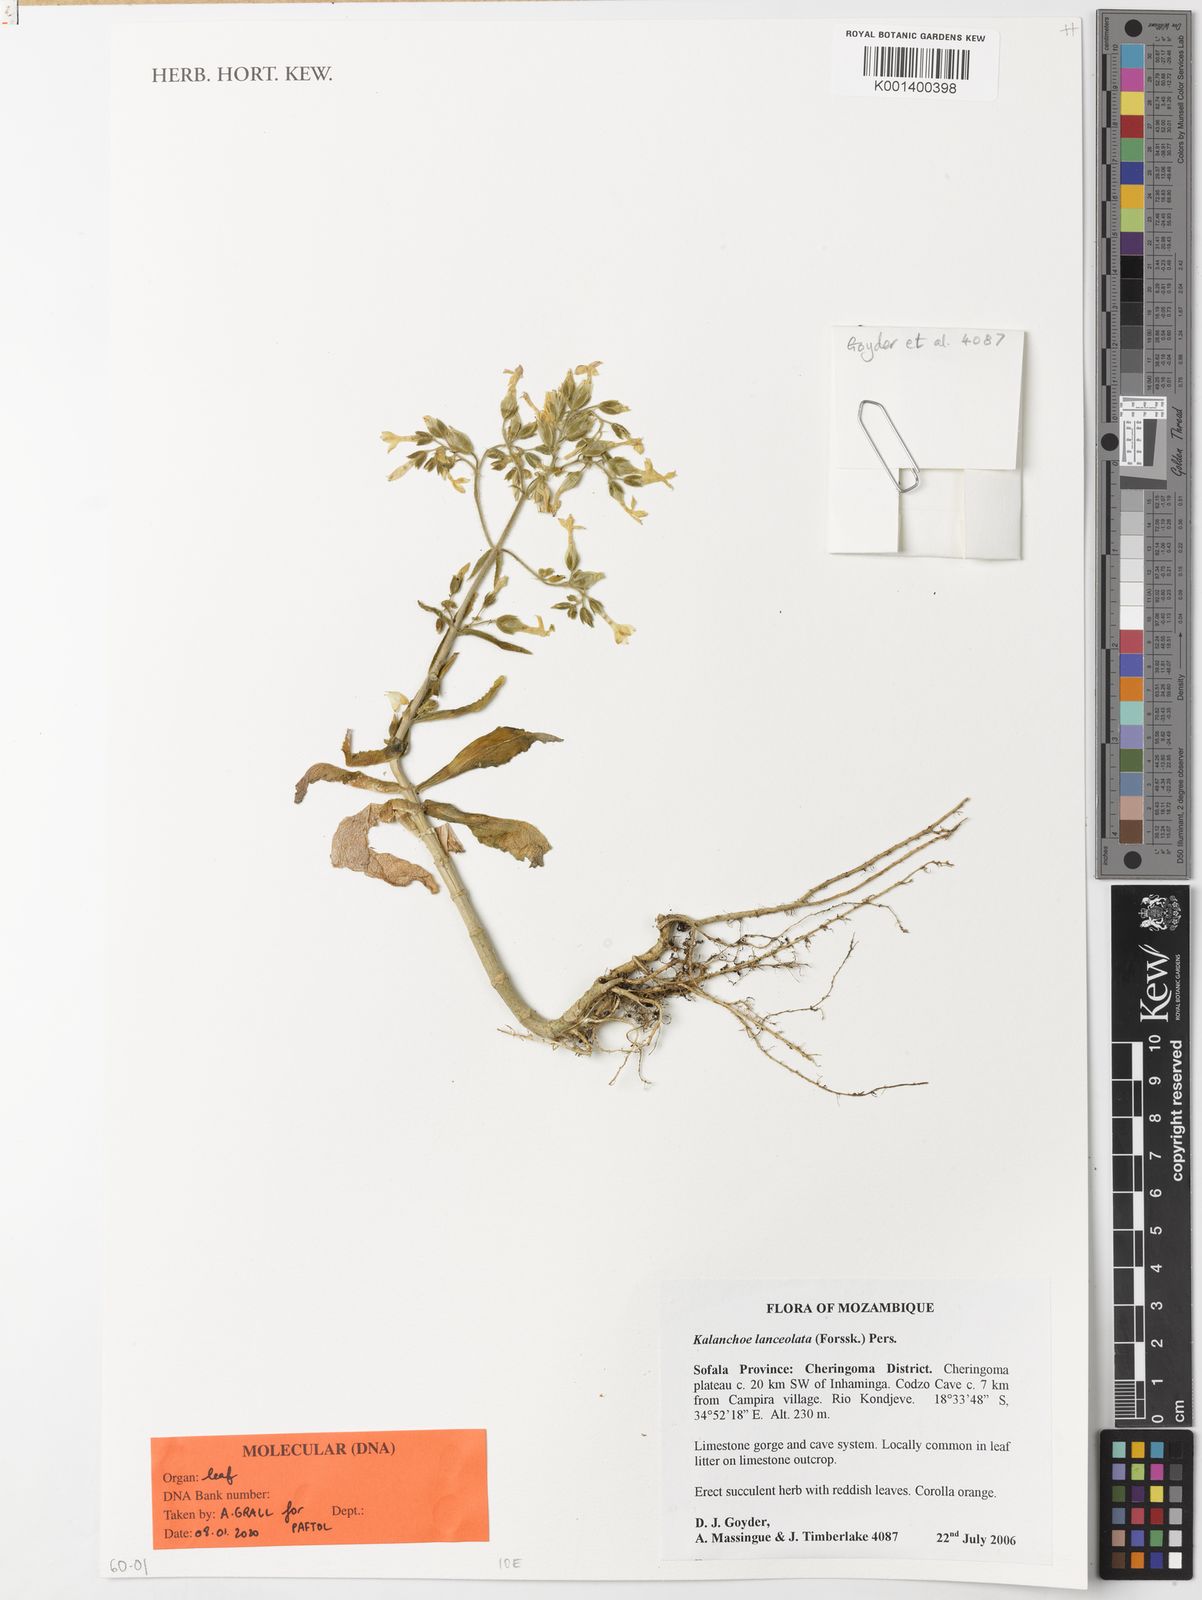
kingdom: Plantae
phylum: Tracheophyta
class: Magnoliopsida
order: Saxifragales
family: Crassulaceae
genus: Kalanchoe
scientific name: Kalanchoe lanceolata
